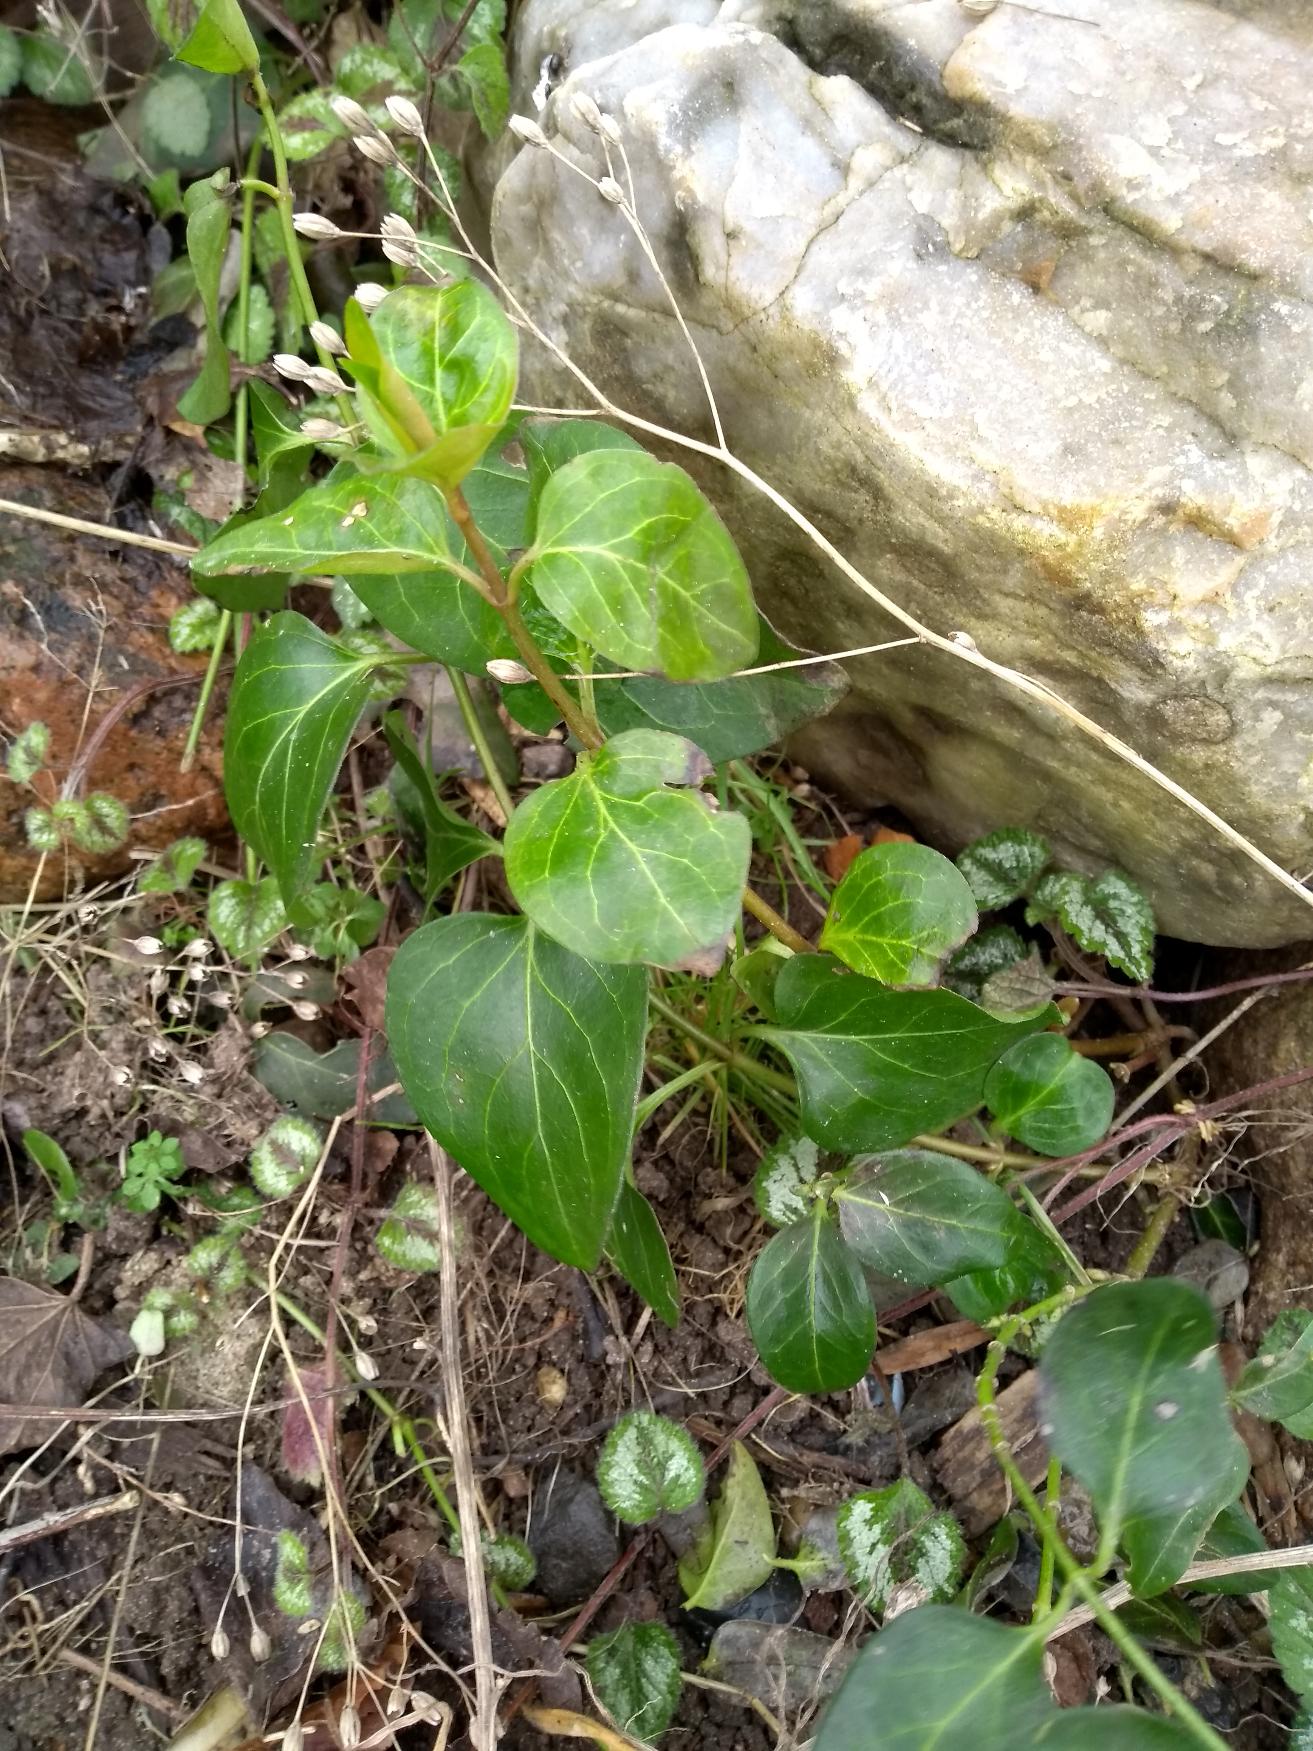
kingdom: Plantae
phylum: Tracheophyta
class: Magnoliopsida
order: Gentianales
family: Apocynaceae
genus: Vinca
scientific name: Vinca major
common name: Stor singrøn
